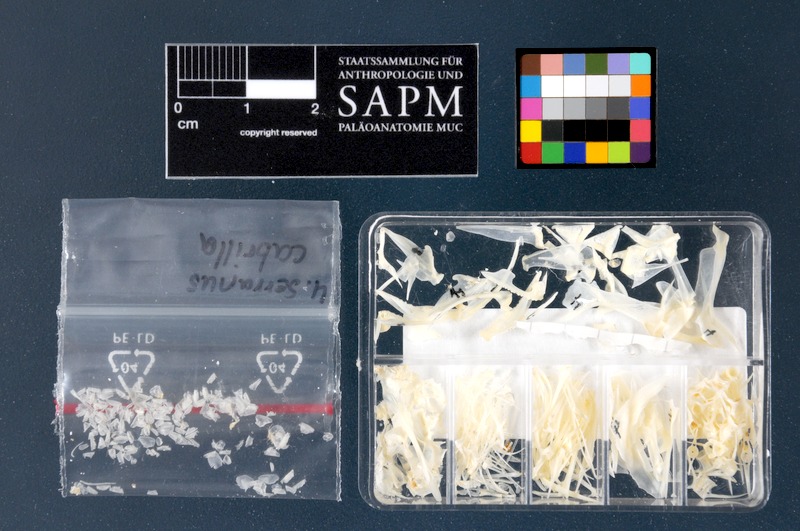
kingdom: Animalia
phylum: Chordata
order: Perciformes
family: Serranidae
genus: Serranus
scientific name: Serranus cabrilla
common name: Comber
